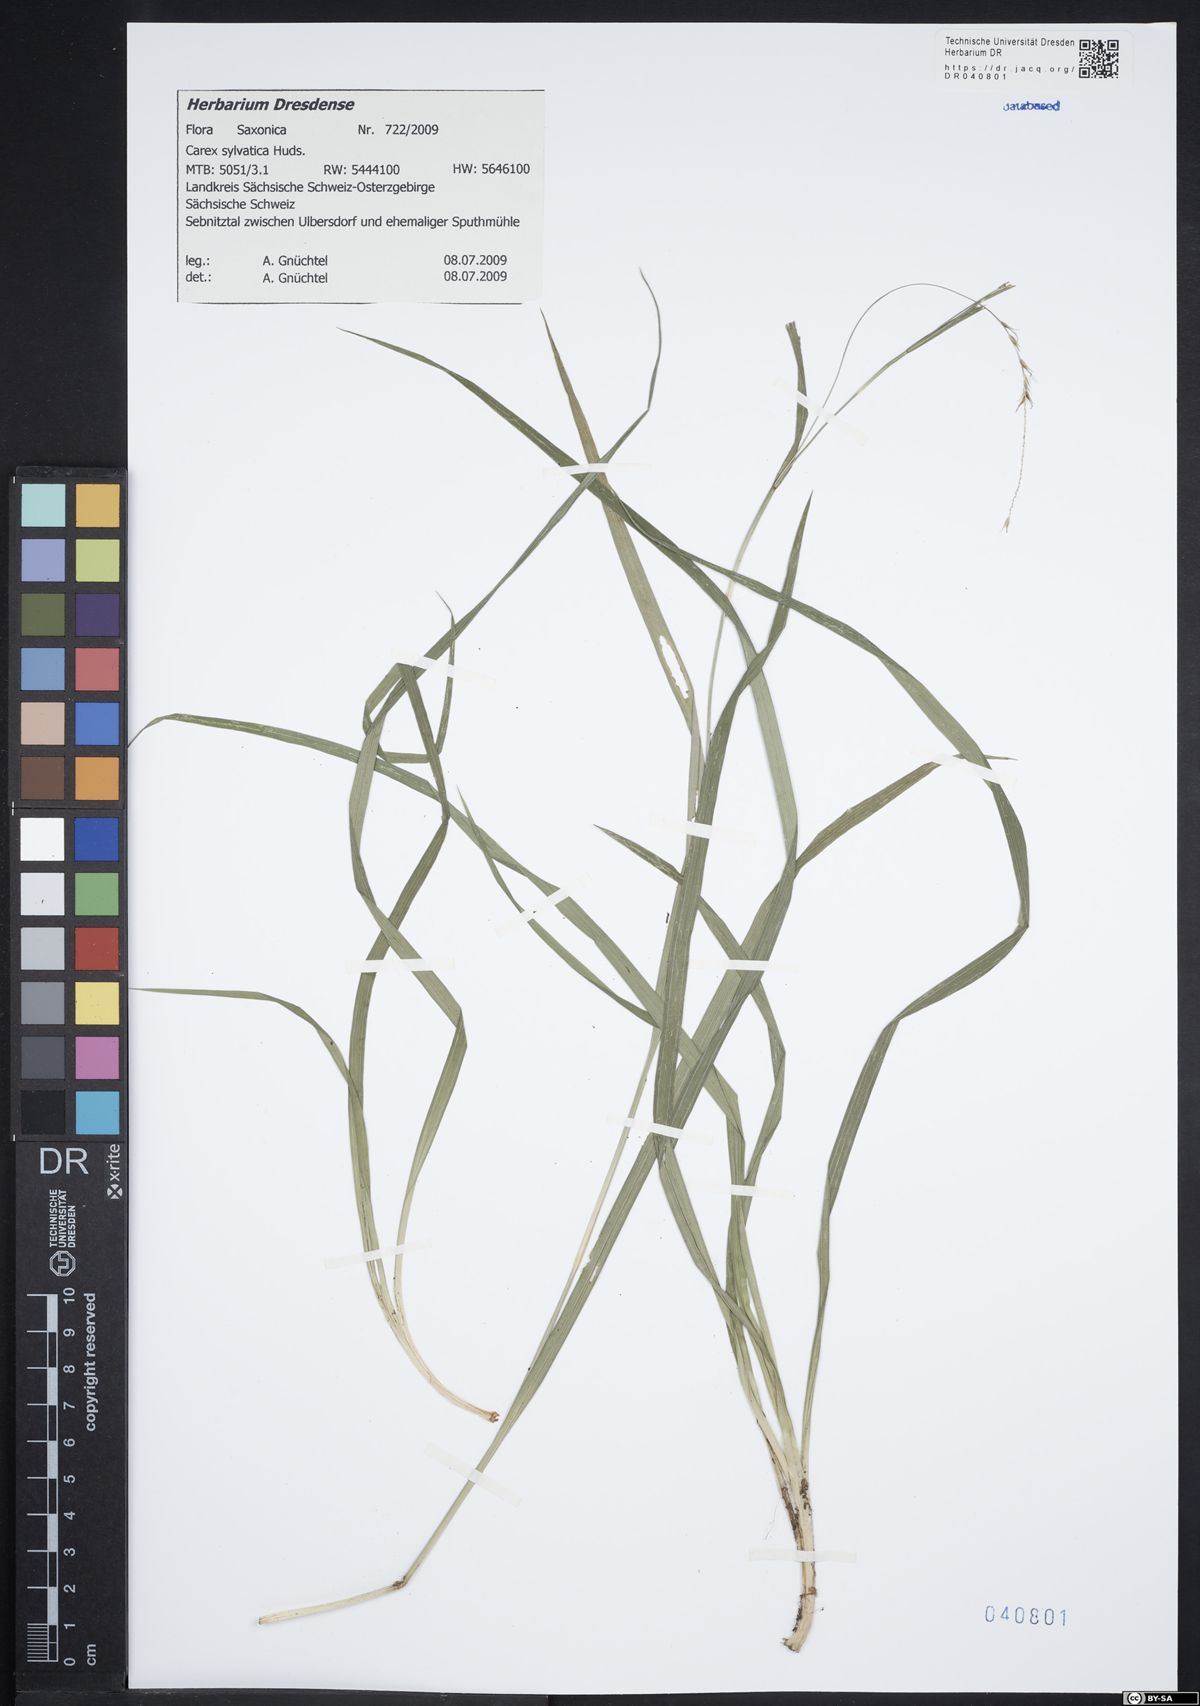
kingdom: Plantae
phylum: Tracheophyta
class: Liliopsida
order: Poales
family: Cyperaceae
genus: Carex
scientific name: Carex sylvatica
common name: Wood-sedge
